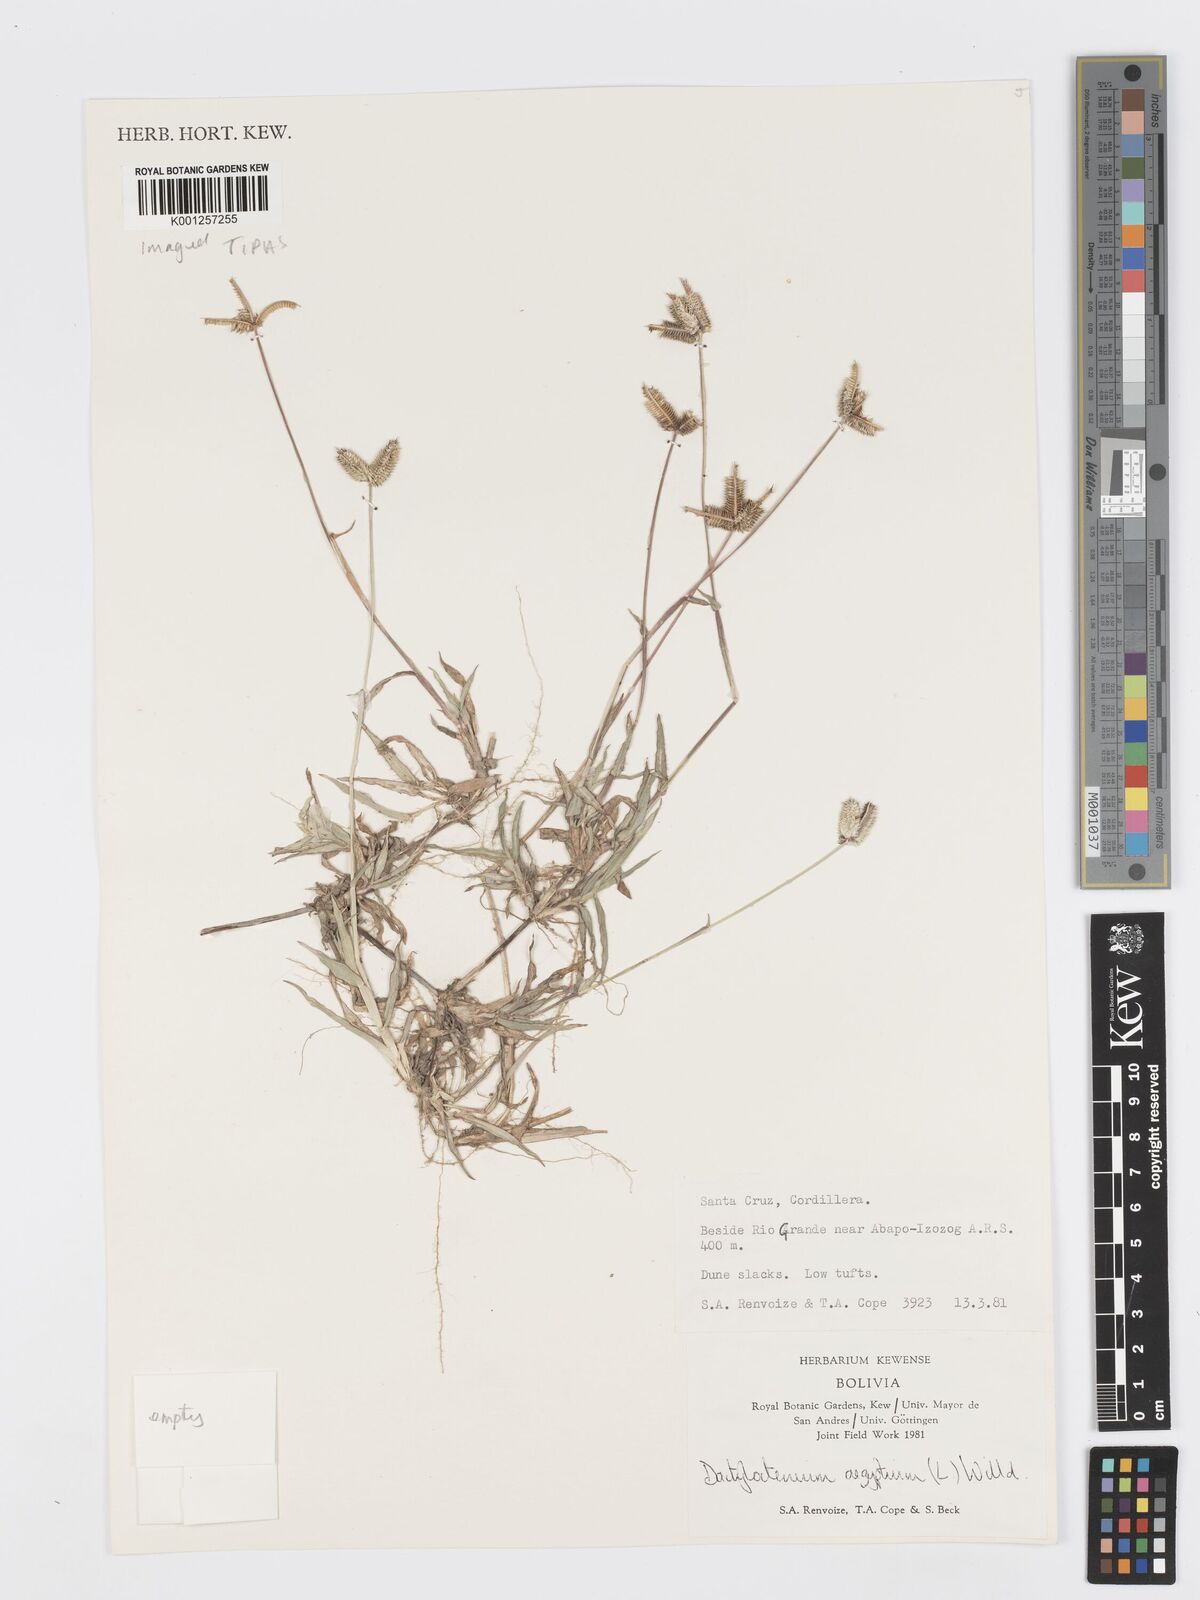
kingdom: Plantae
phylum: Tracheophyta
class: Liliopsida
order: Poales
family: Poaceae
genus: Dactyloctenium
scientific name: Dactyloctenium aegyptium
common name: Egyptian grass
